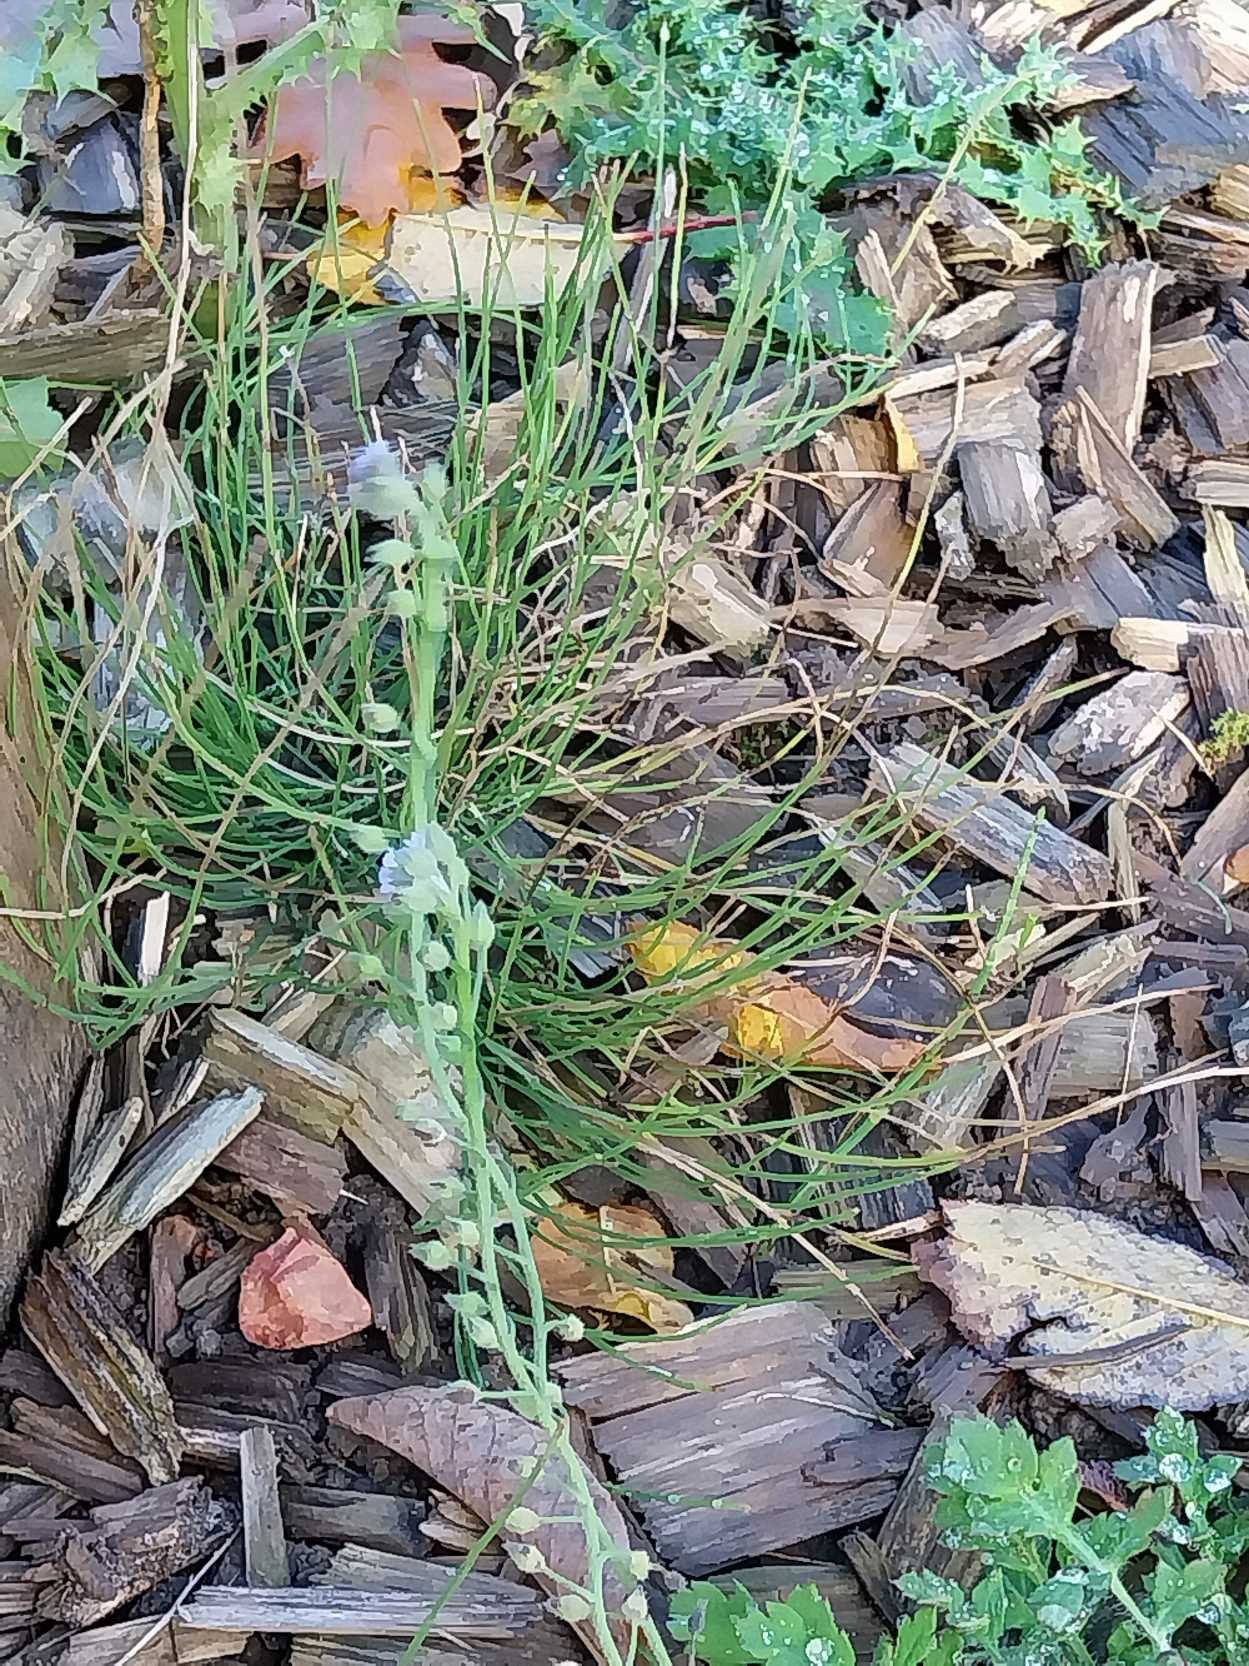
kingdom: Plantae
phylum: Tracheophyta
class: Magnoliopsida
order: Boraginales
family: Boraginaceae
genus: Myosotis
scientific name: Myosotis arvensis
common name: Mark-forglemmigej
